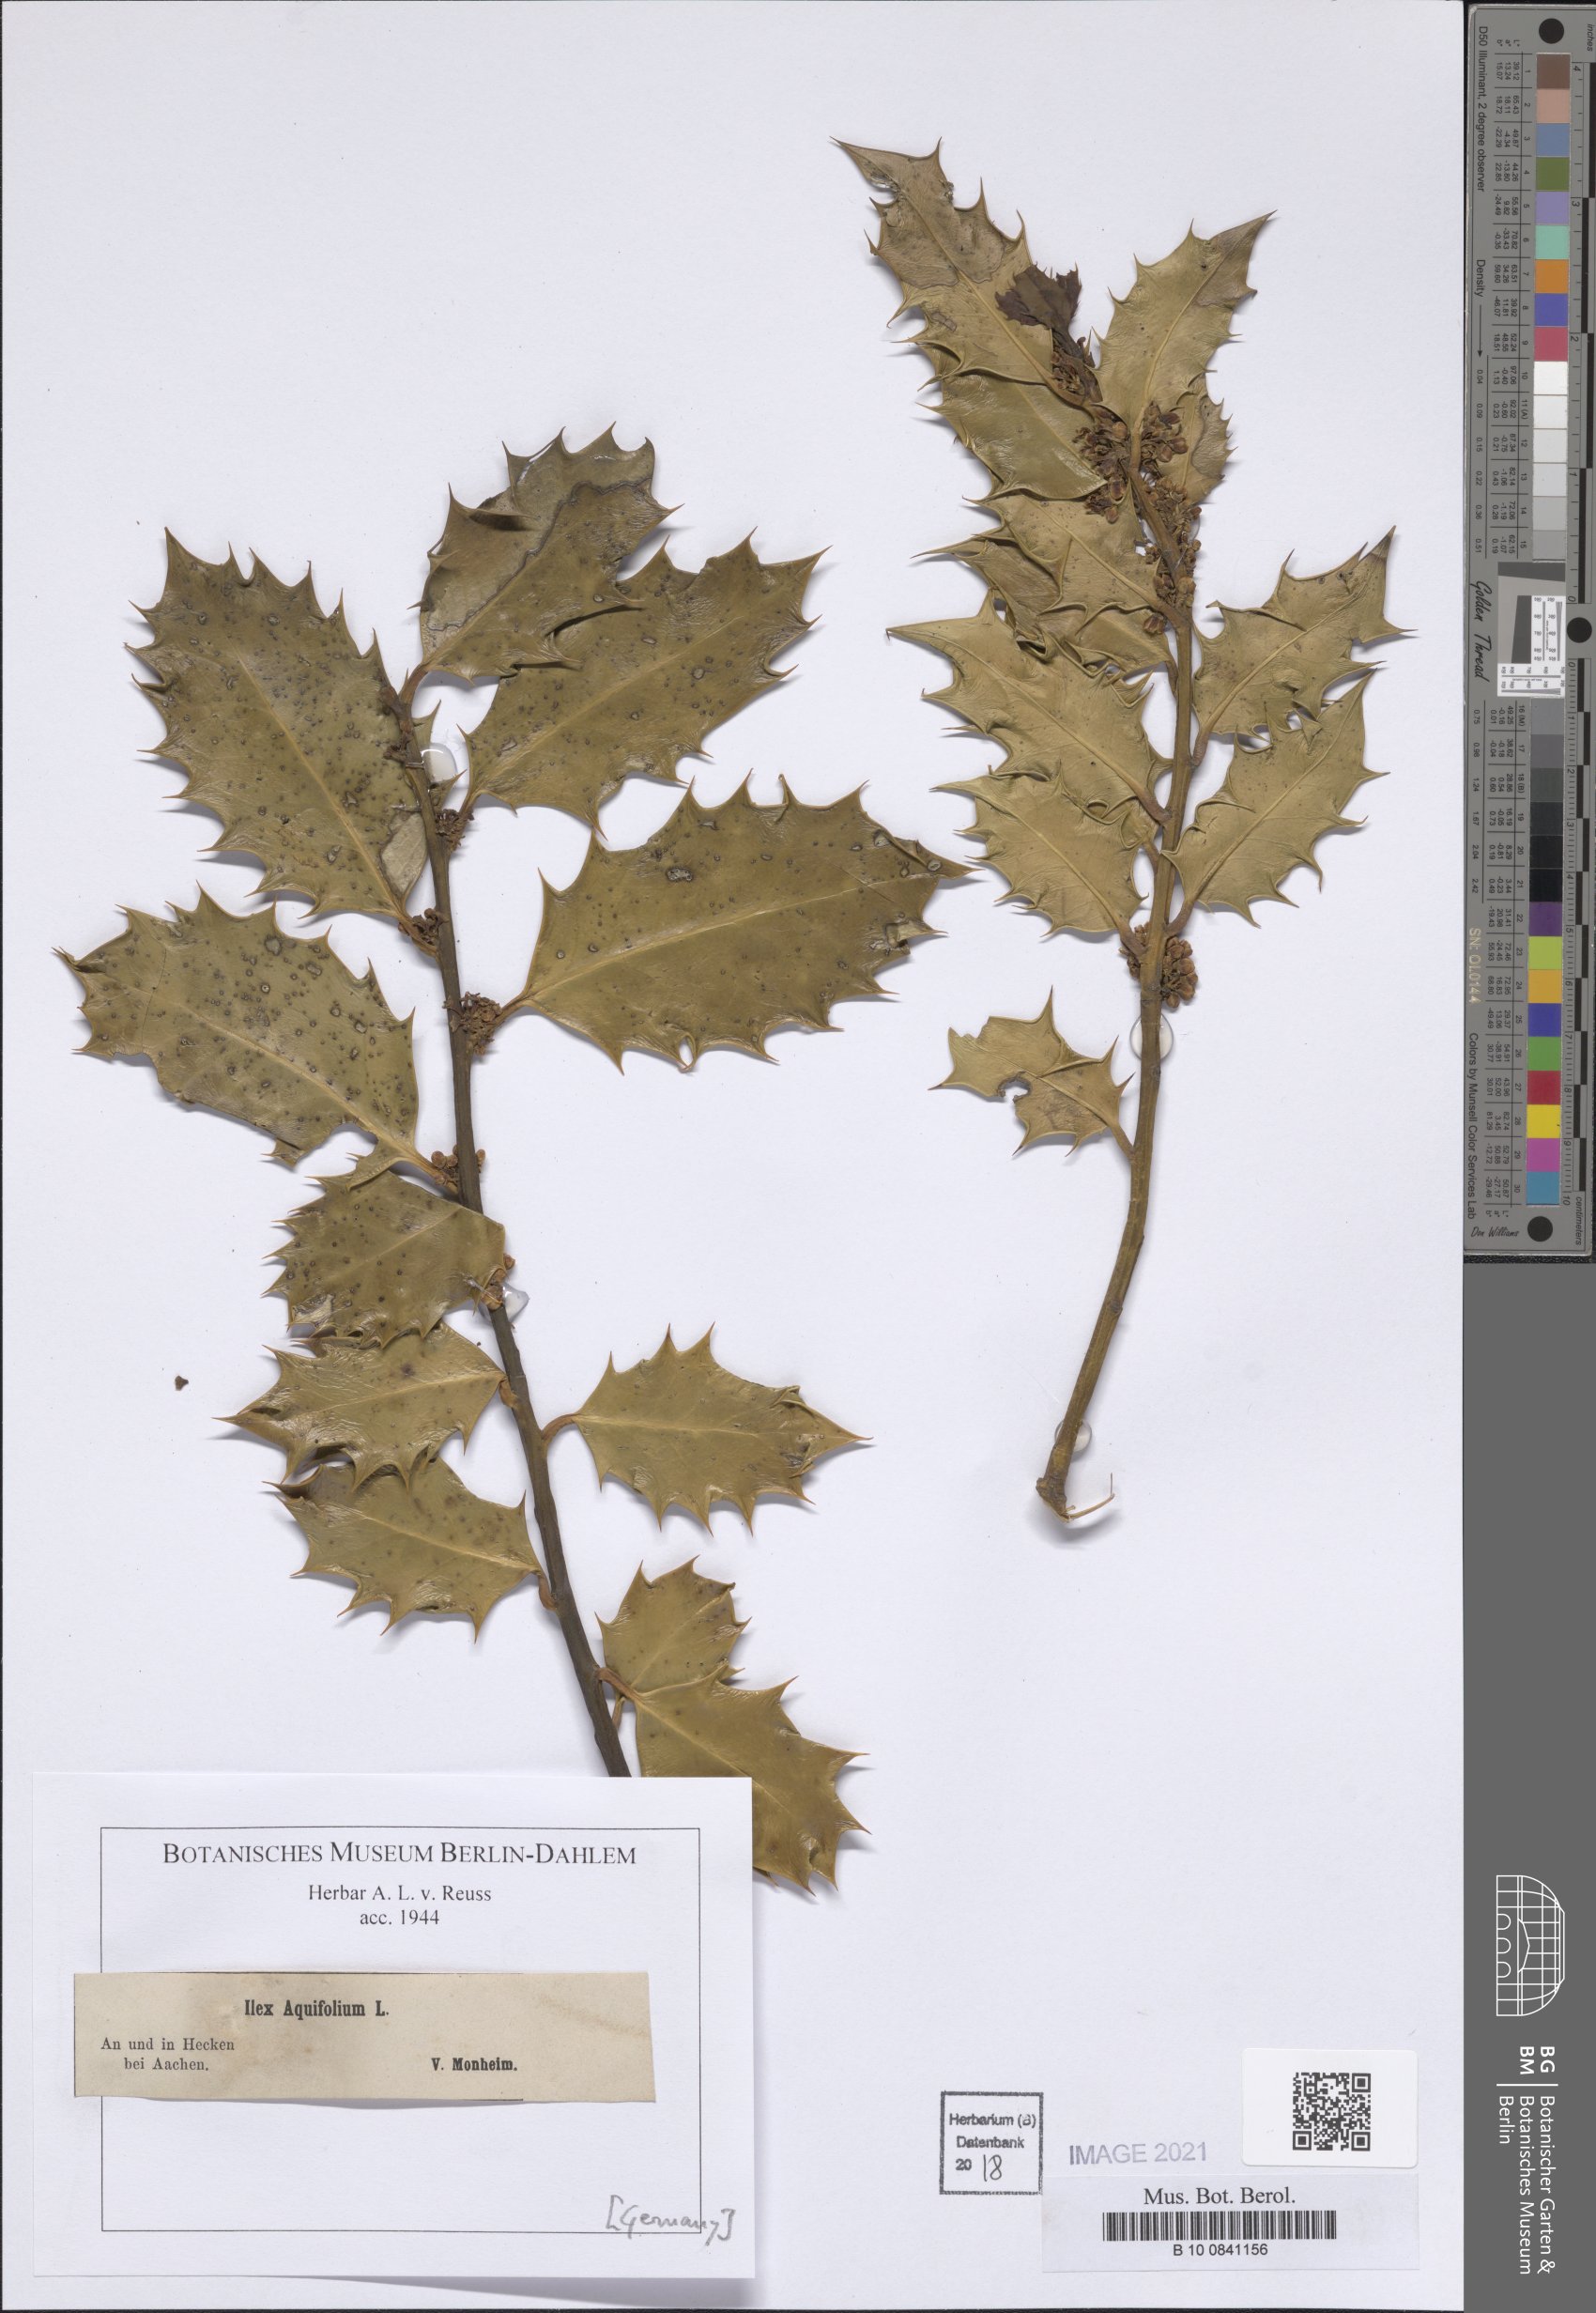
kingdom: Plantae
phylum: Tracheophyta
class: Magnoliopsida
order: Aquifoliales
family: Aquifoliaceae
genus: Ilex
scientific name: Ilex aquifolium
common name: English holly
